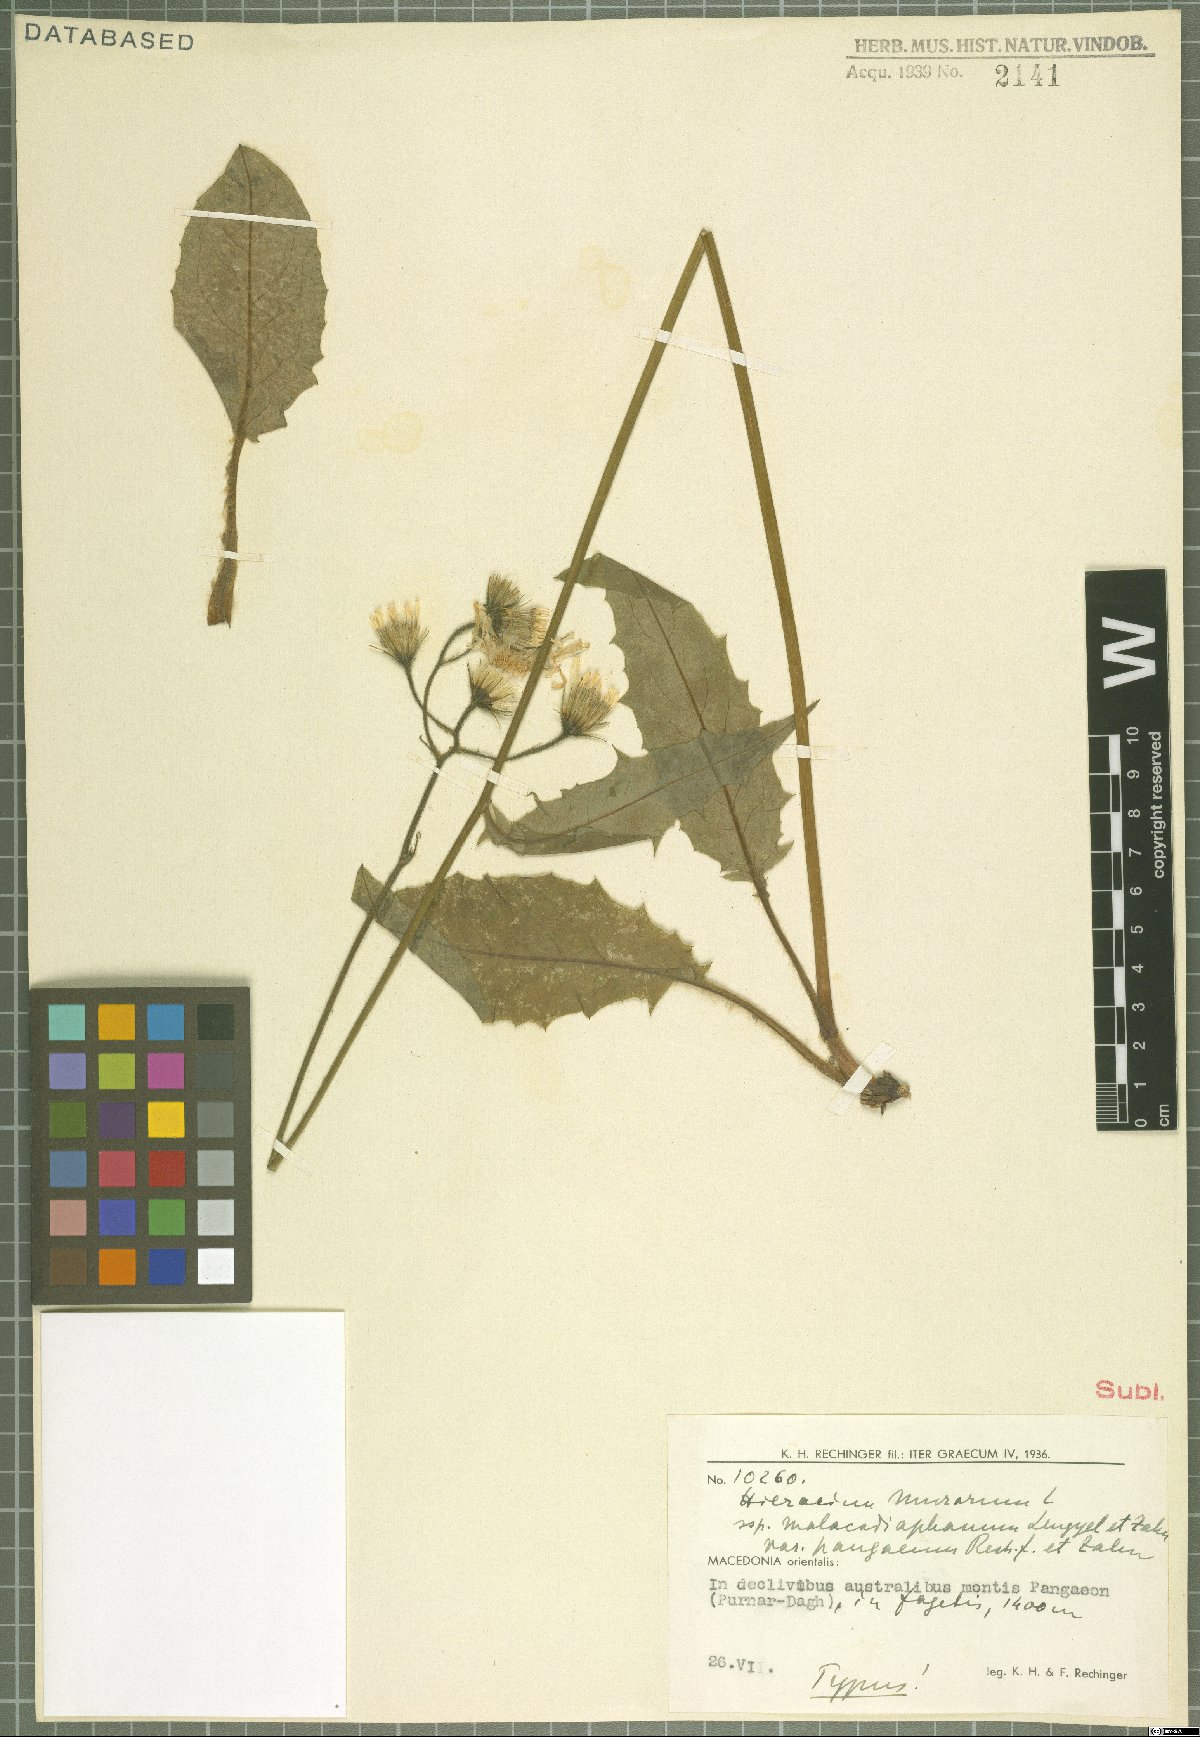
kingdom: Plantae
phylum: Tracheophyta
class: Magnoliopsida
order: Asterales
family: Asteraceae
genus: Hieracium
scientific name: Hieracium murorum
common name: Wall hawkweed
